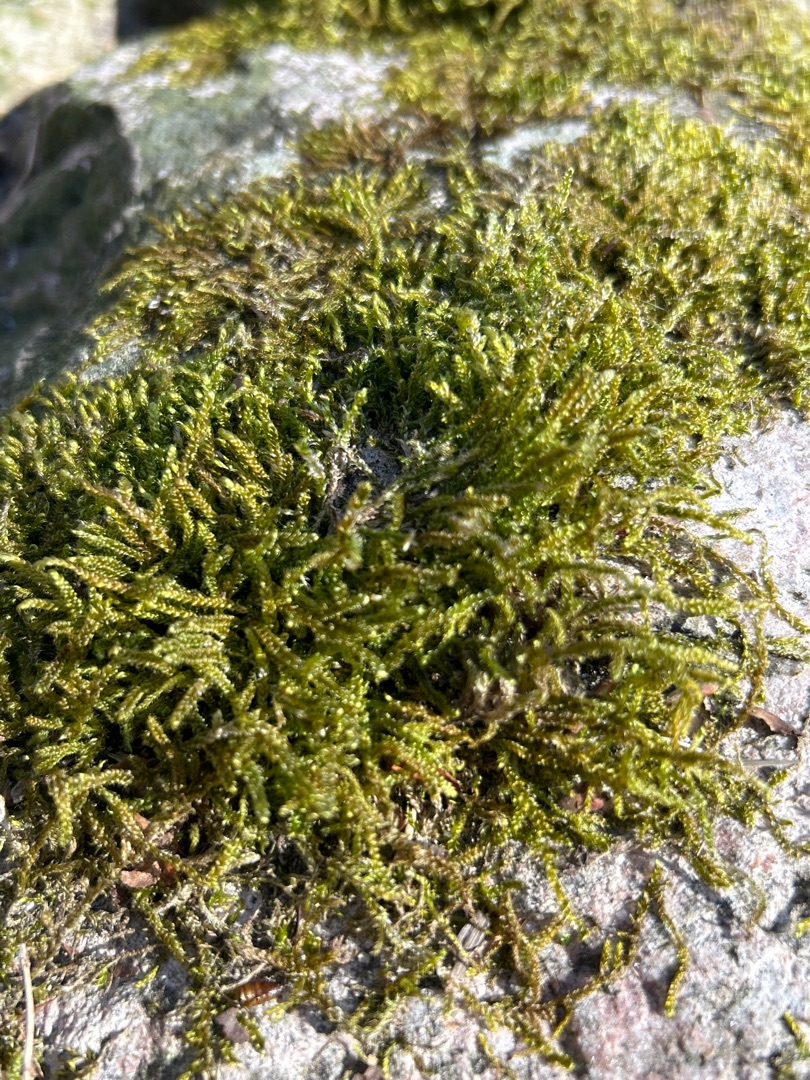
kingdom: Plantae
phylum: Bryophyta
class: Bryopsida
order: Hypnales
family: Hypnaceae
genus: Hypnum
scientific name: Hypnum cupressiforme
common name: Almindelig cypresmos
